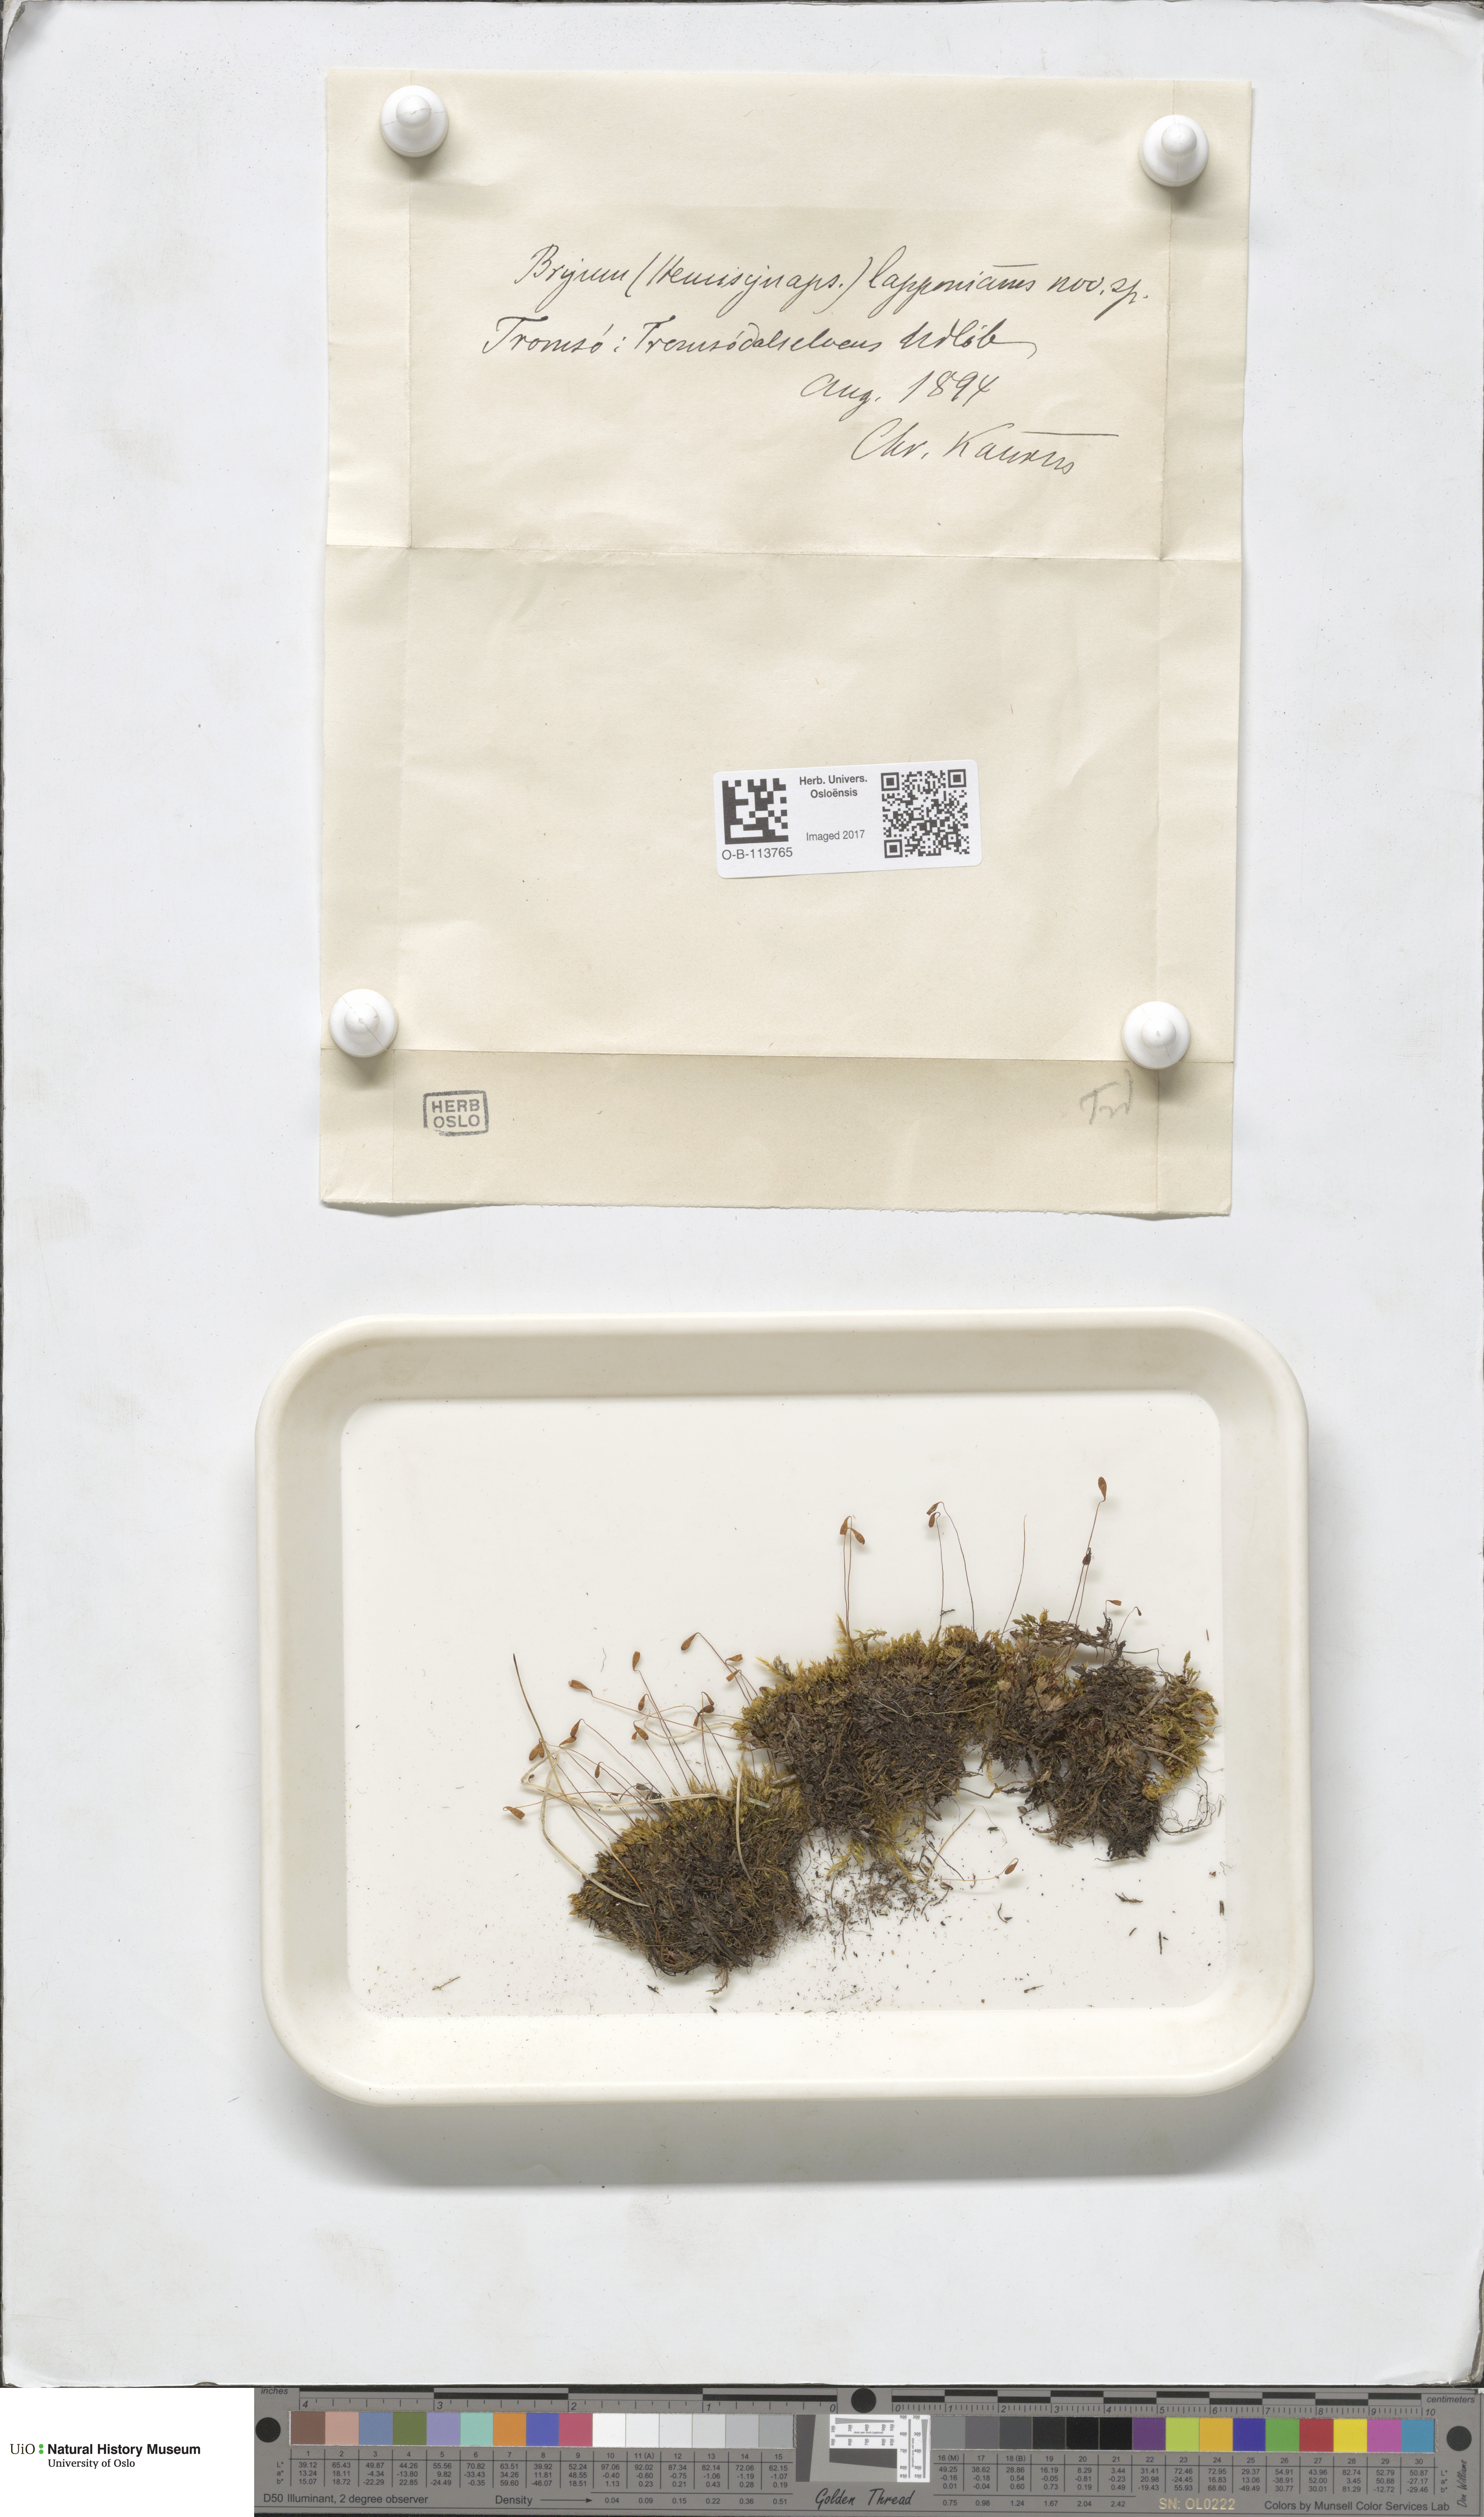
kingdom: Plantae
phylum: Bryophyta
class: Bryopsida
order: Dicranales
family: Amphidiaceae
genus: Amphidium
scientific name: Amphidium lapponicum
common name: Lapland yoke moss
